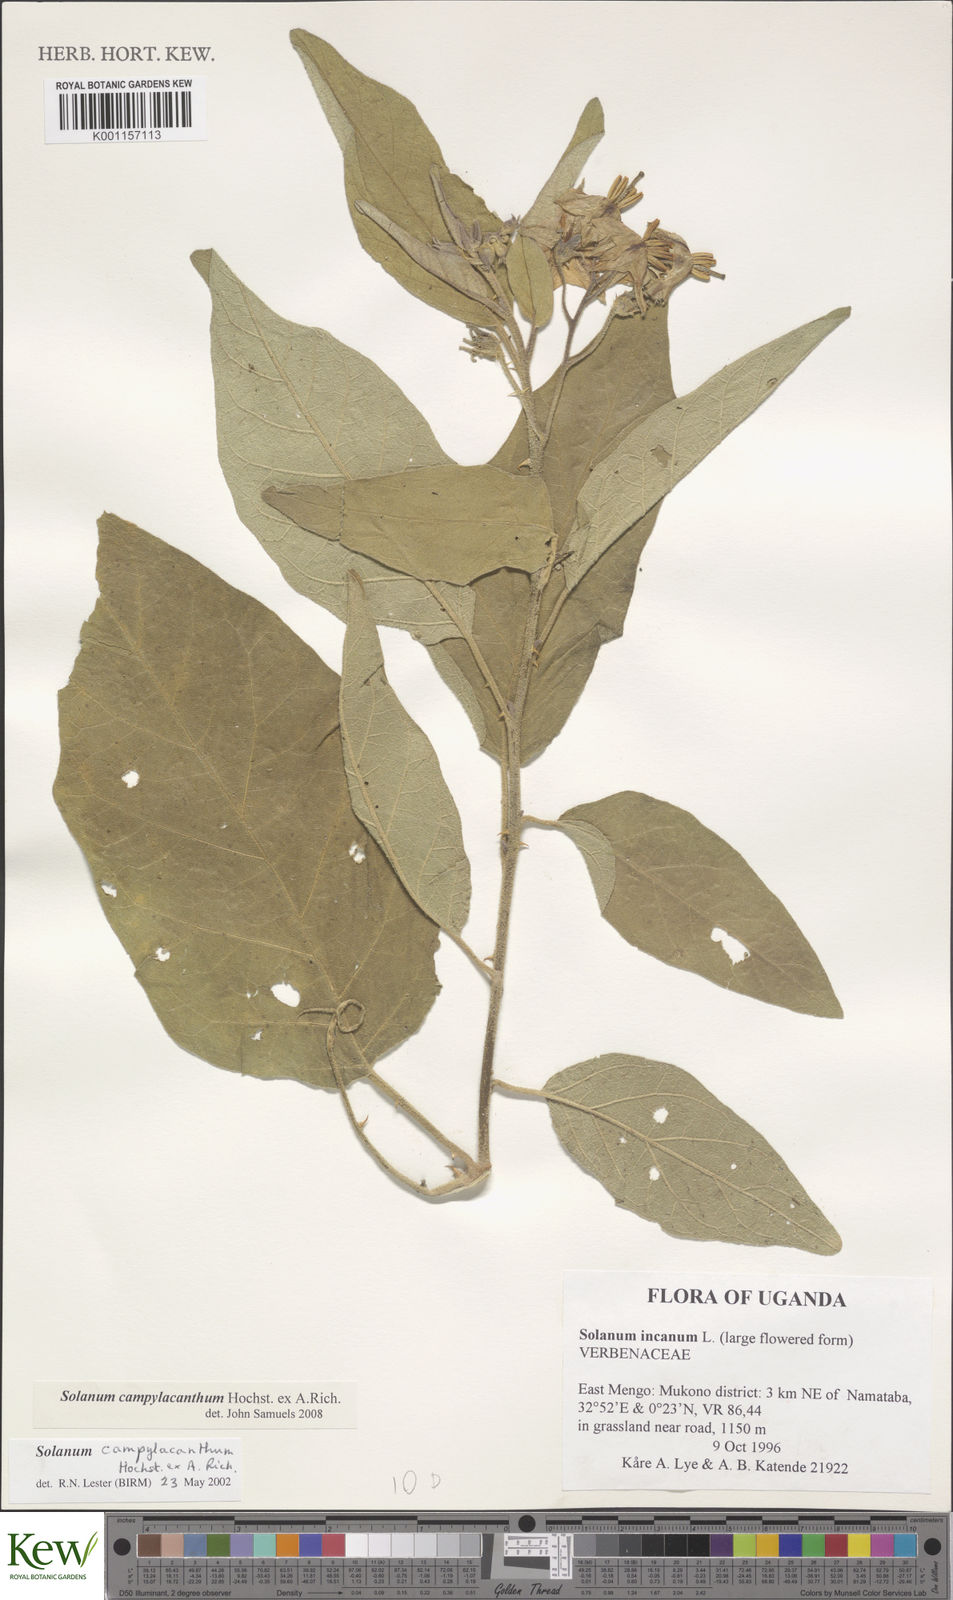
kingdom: Plantae
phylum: Tracheophyta
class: Magnoliopsida
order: Solanales
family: Solanaceae
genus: Solanum
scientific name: Solanum campylacanthum
